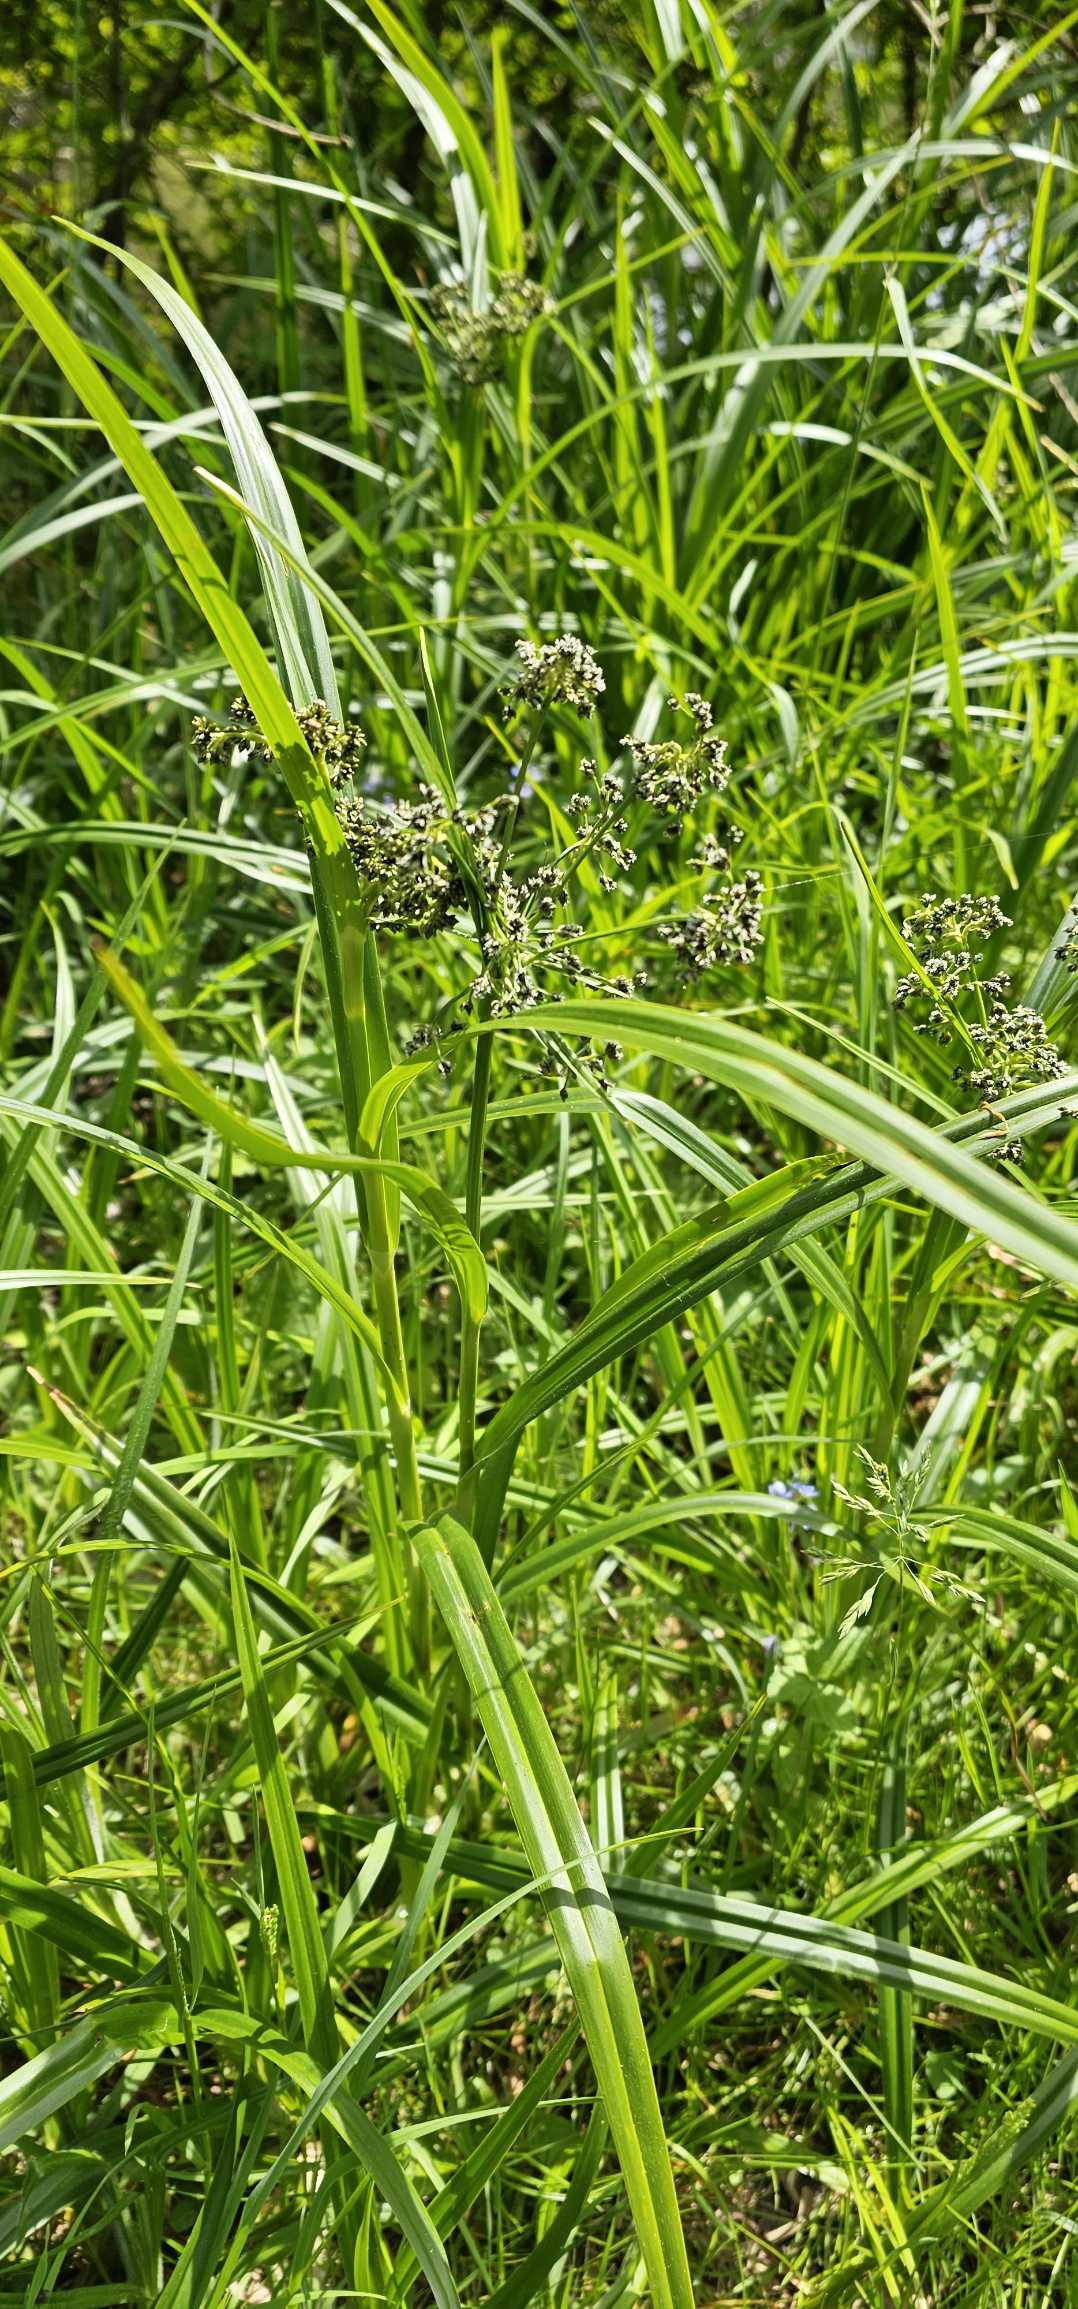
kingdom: Plantae
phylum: Tracheophyta
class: Liliopsida
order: Poales
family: Cyperaceae
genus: Scirpus
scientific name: Scirpus sylvaticus
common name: Skov-kogleaks
